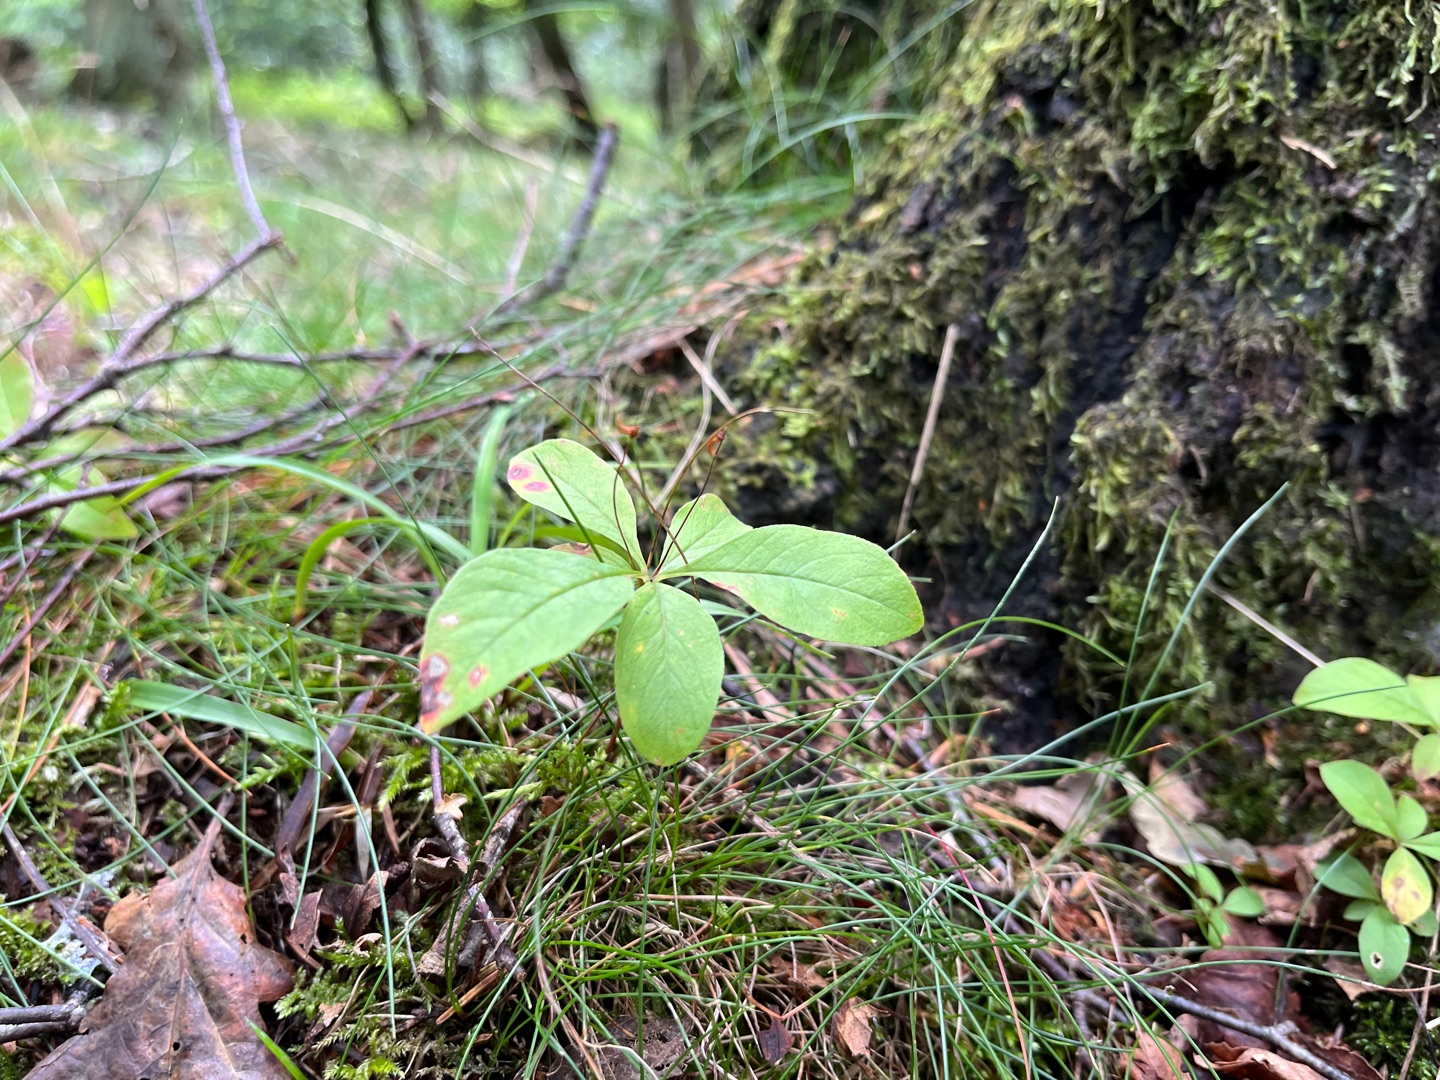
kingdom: Plantae
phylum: Tracheophyta
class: Magnoliopsida
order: Ericales
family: Primulaceae
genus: Lysimachia
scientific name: Lysimachia europaea
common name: Skovstjerne
